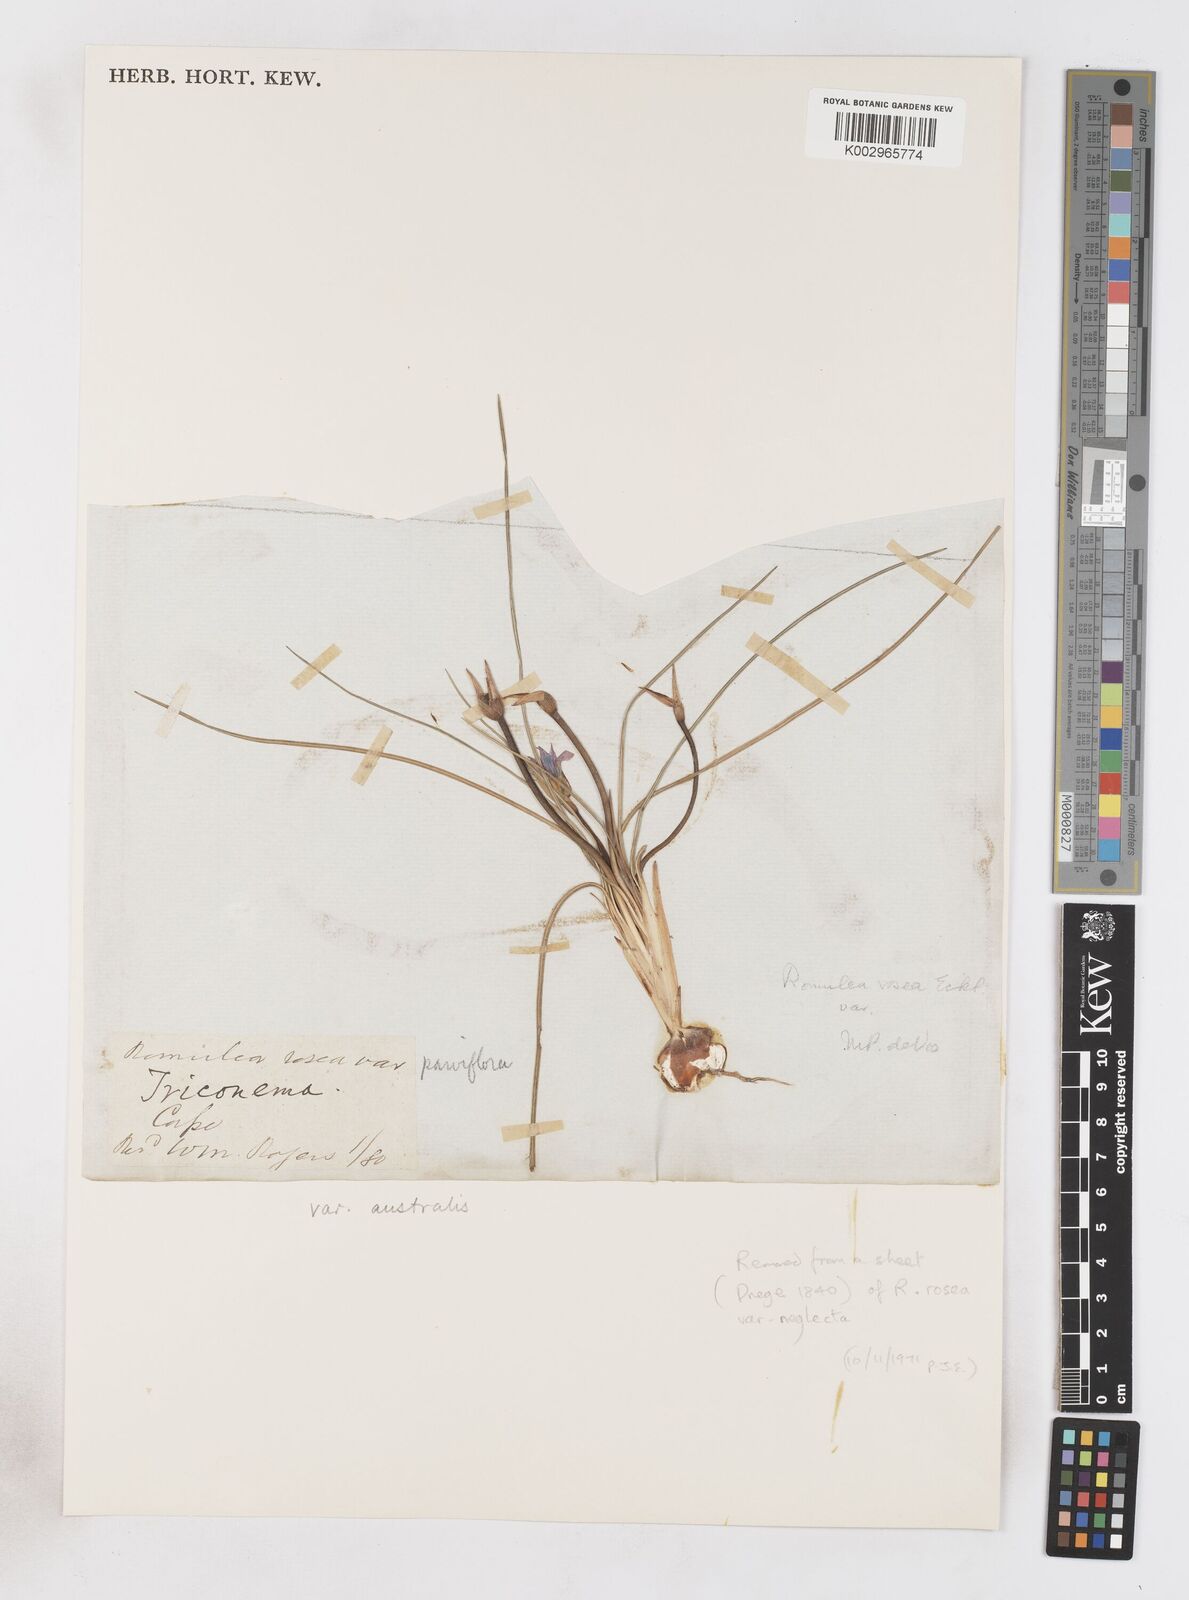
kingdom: Plantae
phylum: Tracheophyta
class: Liliopsida
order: Asparagales
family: Iridaceae
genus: Romulea
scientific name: Romulea rosea
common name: Oniongrass
